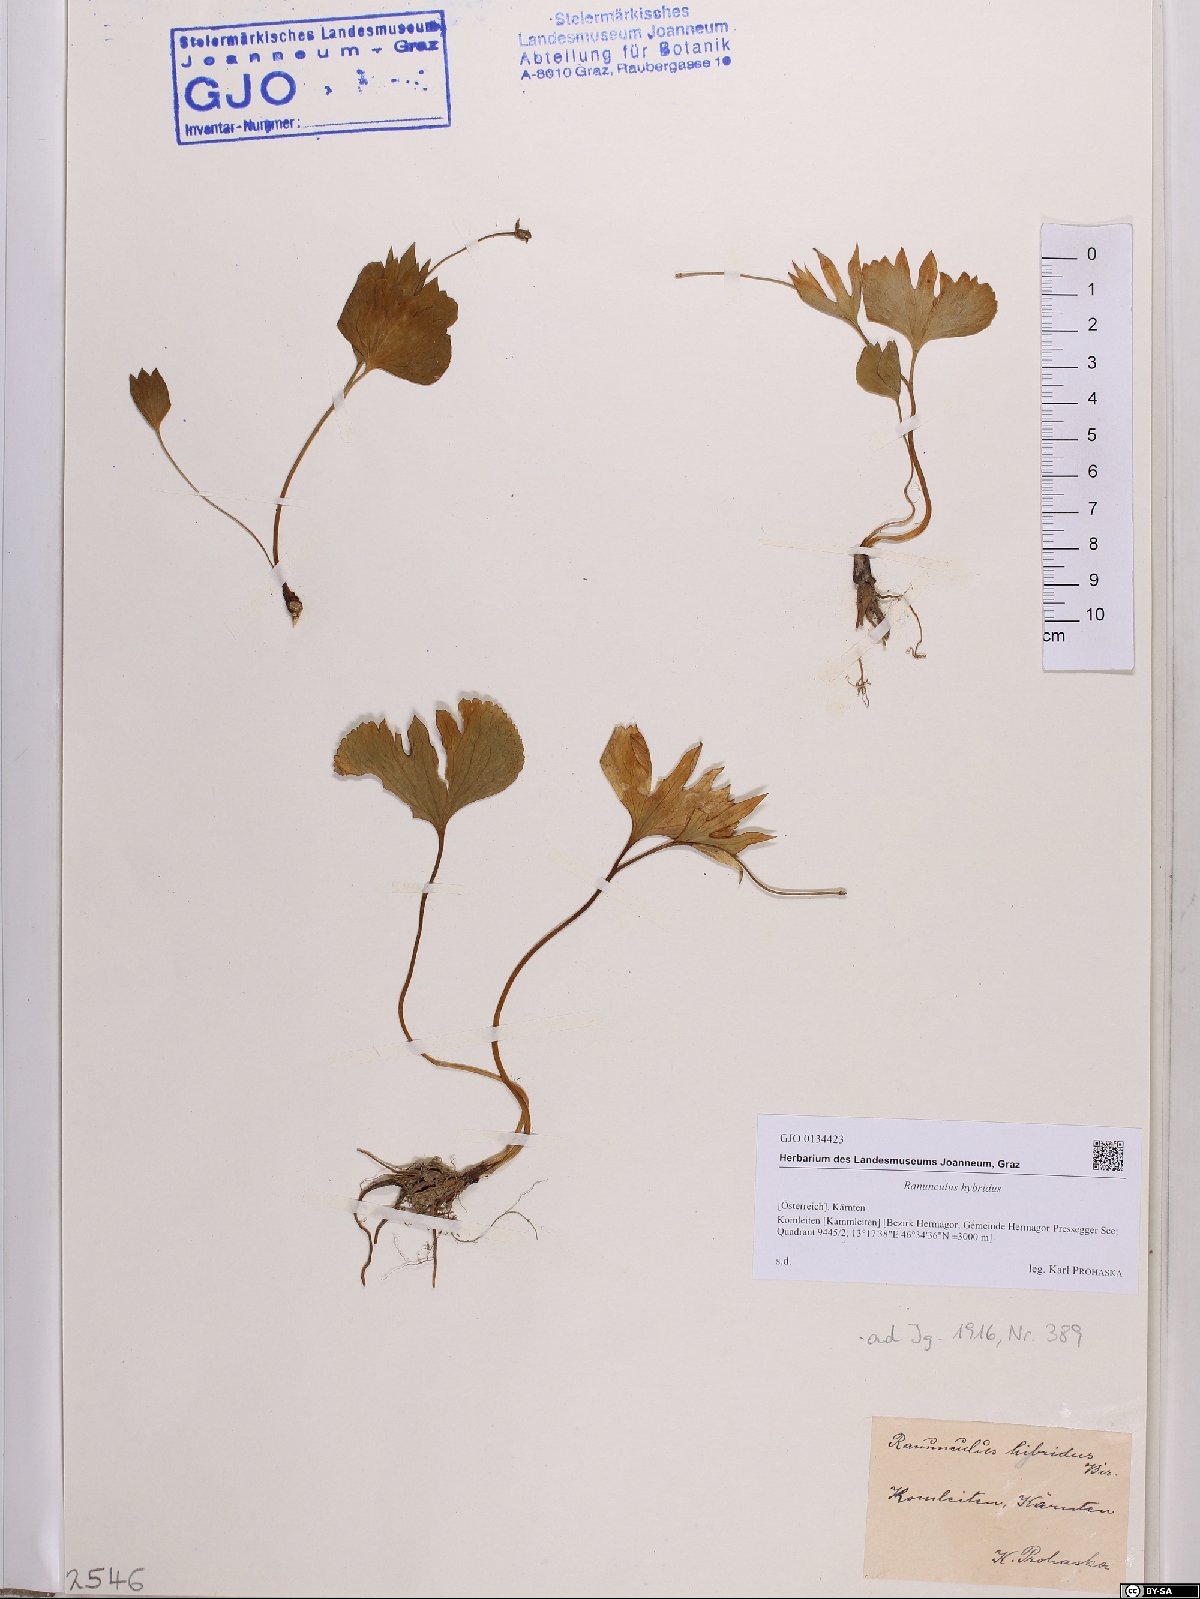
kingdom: Plantae
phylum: Tracheophyta
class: Magnoliopsida
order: Ranunculales
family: Ranunculaceae
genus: Ranunculus
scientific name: Ranunculus hybridus
